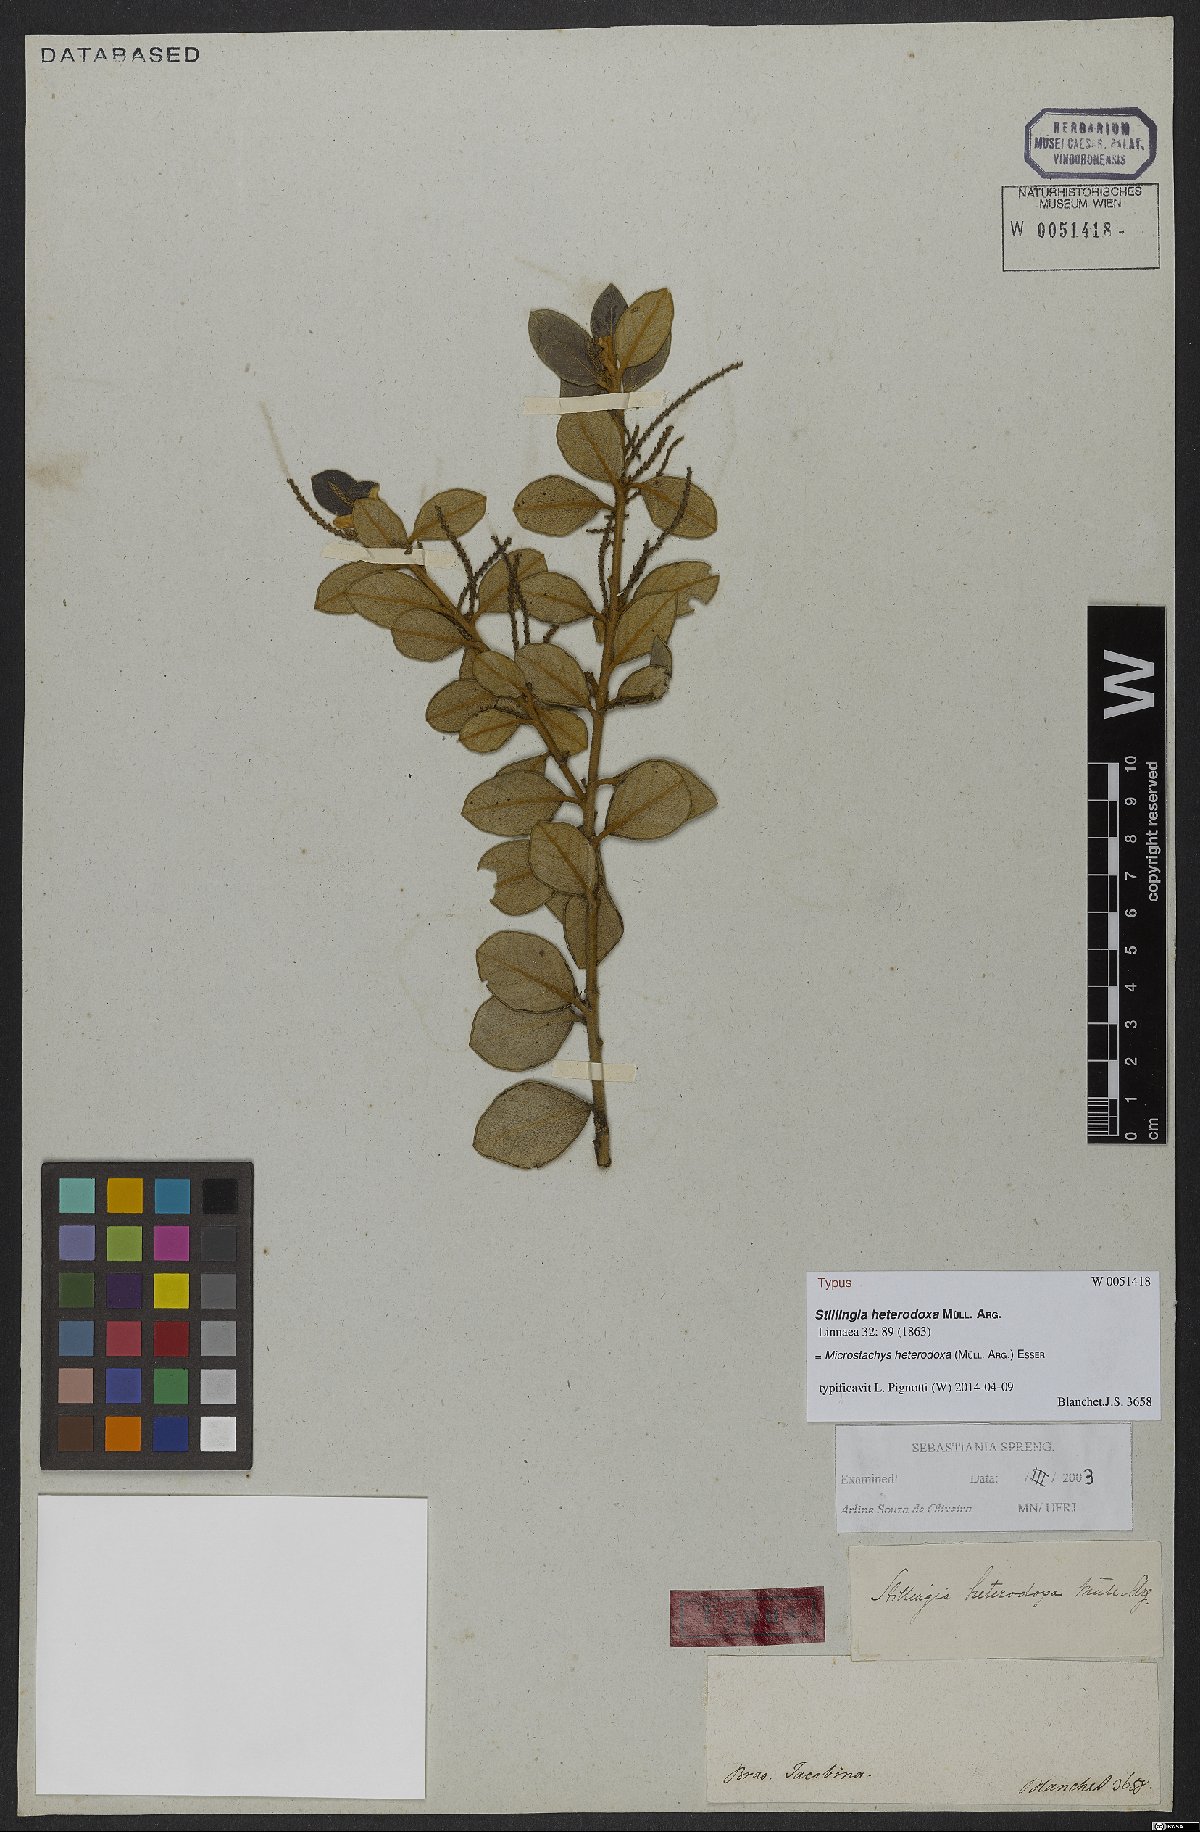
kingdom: Plantae
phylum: Tracheophyta
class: Magnoliopsida
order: Malpighiales
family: Euphorbiaceae
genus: Microstachys
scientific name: Microstachys heterodoxa
